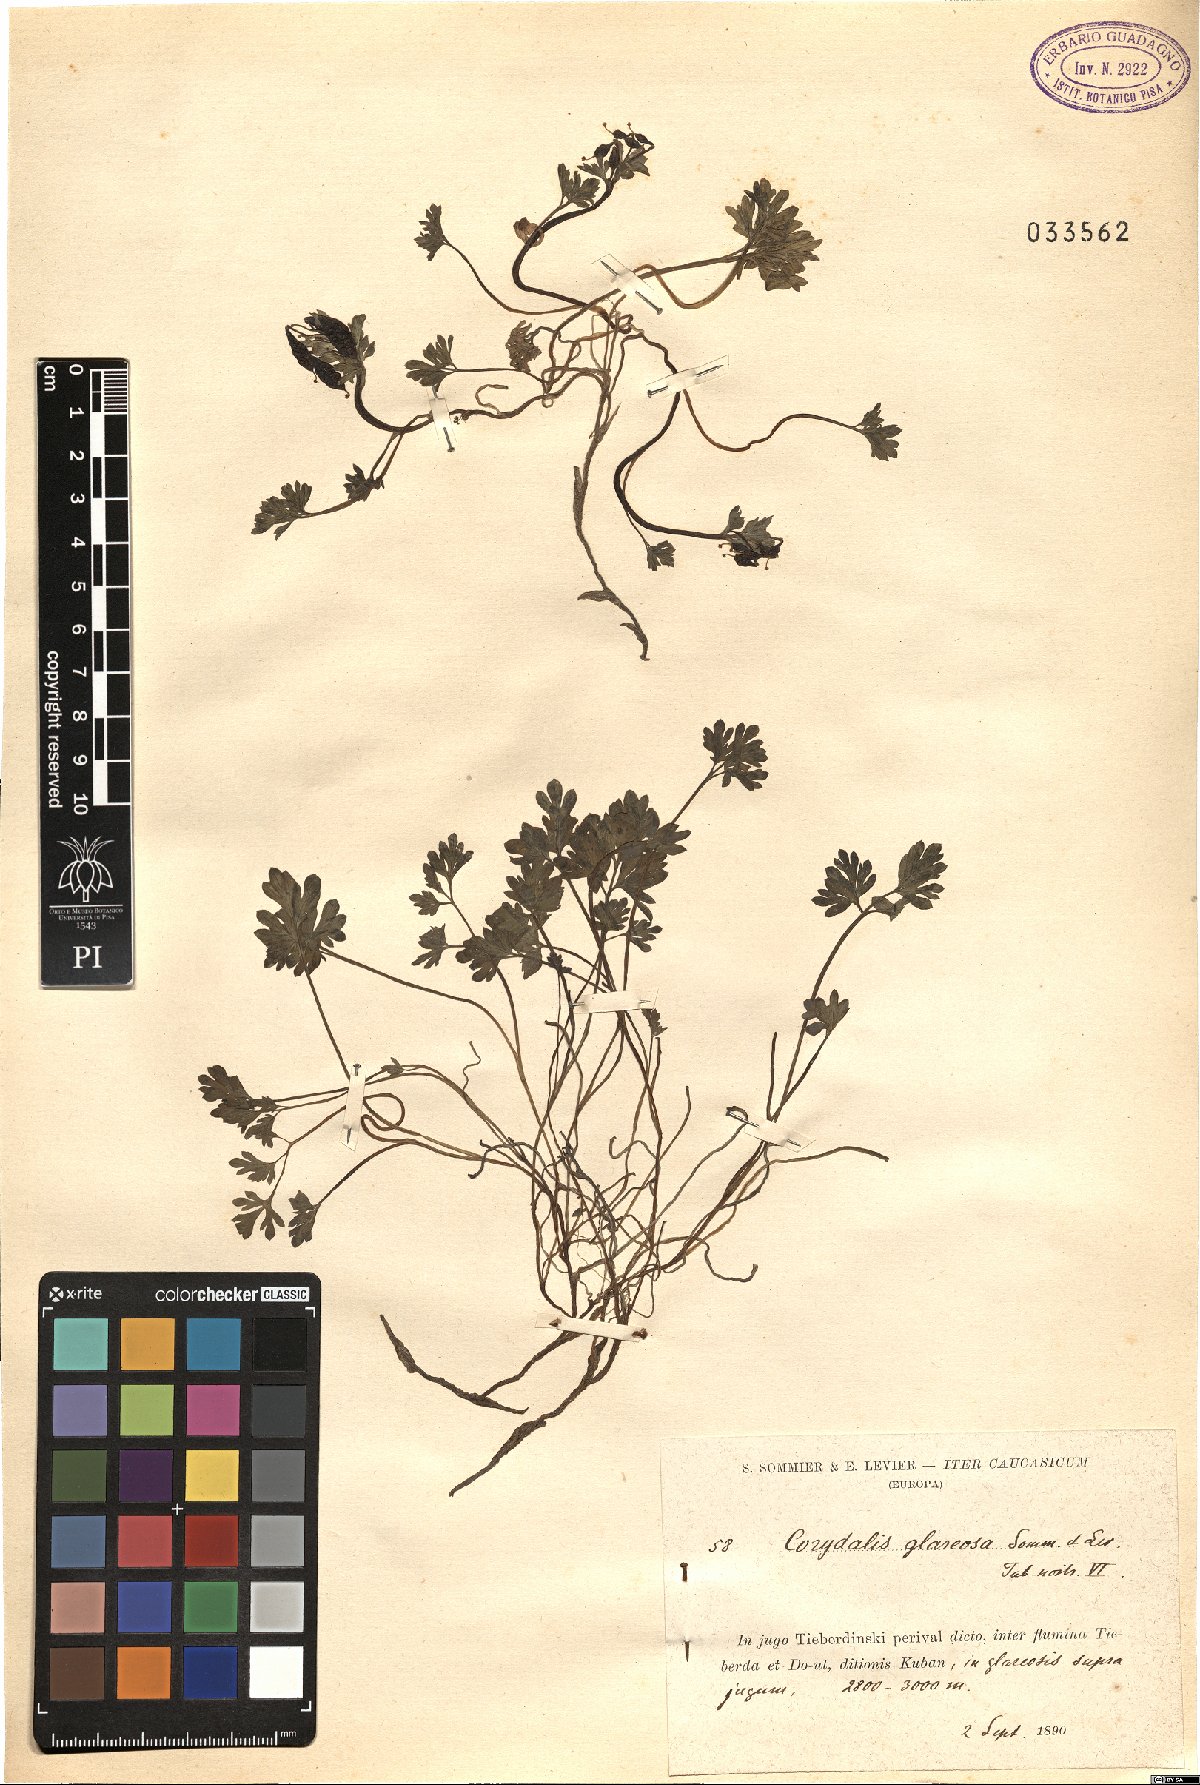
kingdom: Plantae
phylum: Tracheophyta
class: Magnoliopsida
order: Ranunculales
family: Papaveraceae
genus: Corydalis
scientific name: Corydalis alpestris
